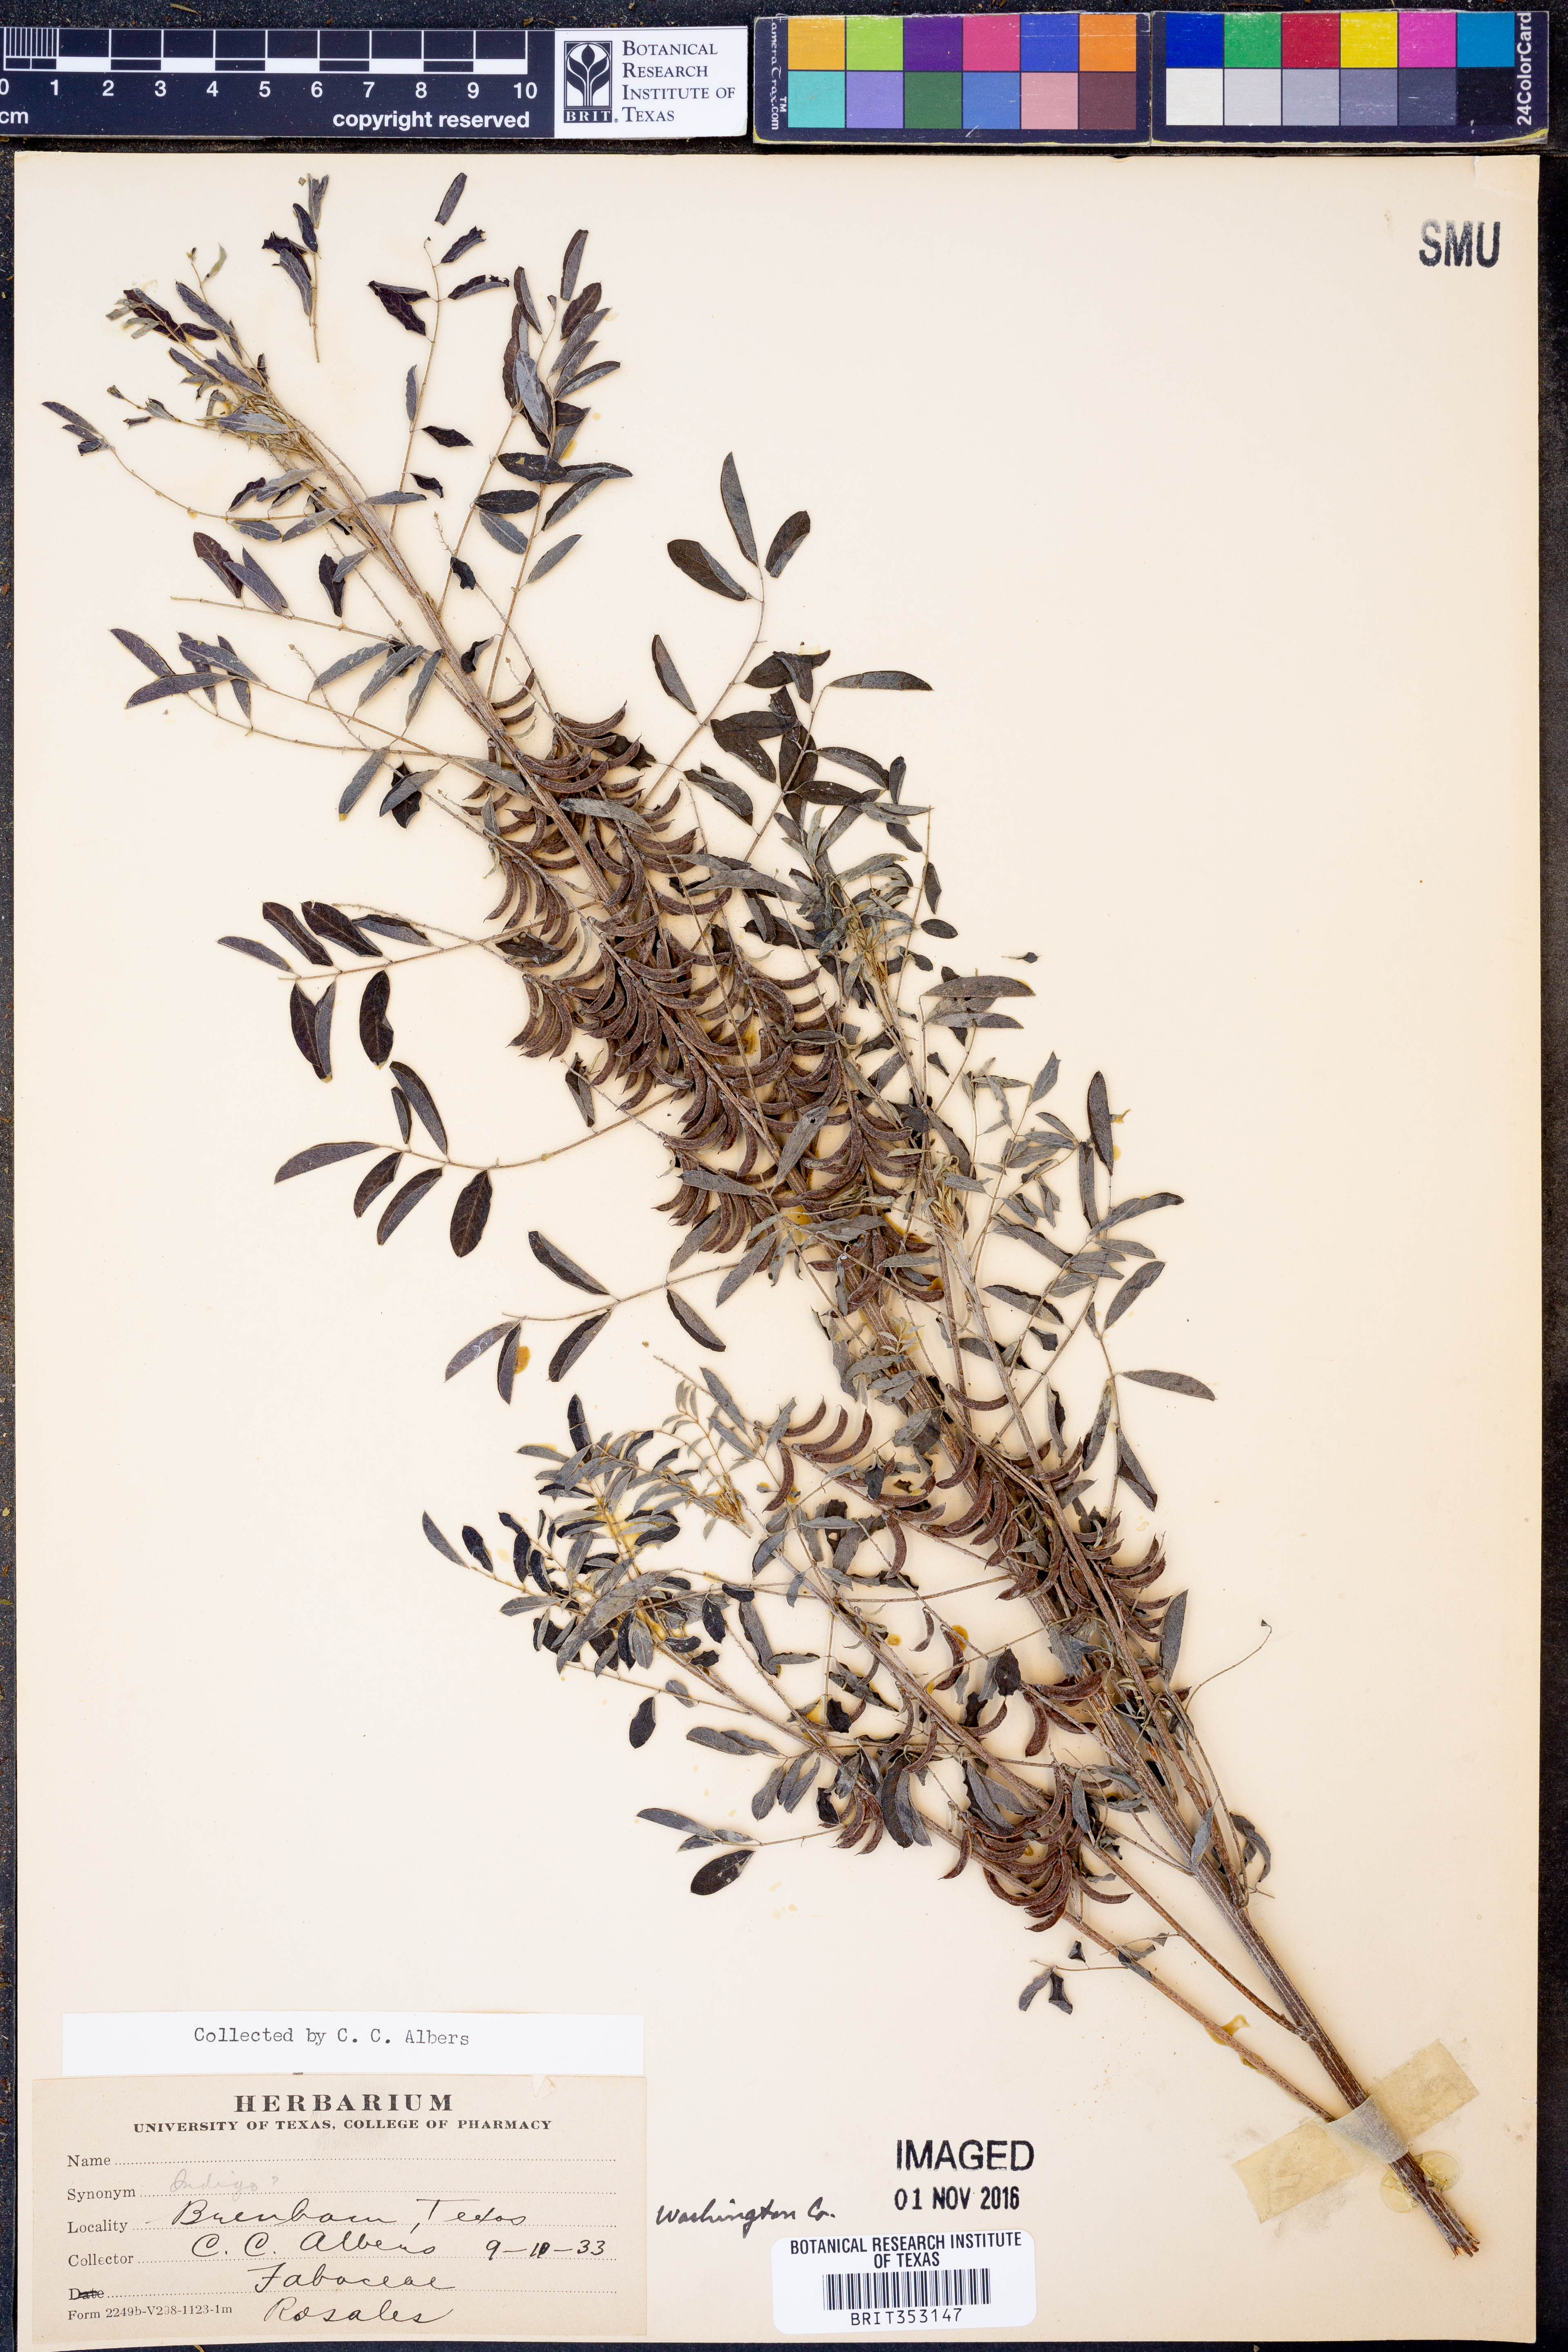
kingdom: Plantae
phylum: Tracheophyta
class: Magnoliopsida
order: Fabales
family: Fabaceae
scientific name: Fabaceae
